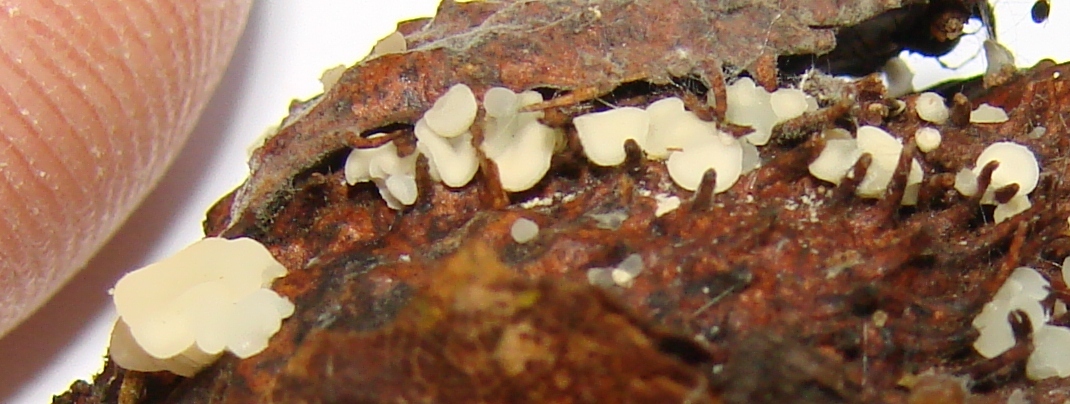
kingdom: Fungi
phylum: Ascomycota
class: Leotiomycetes
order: Helotiales
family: Helotiaceae
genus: Hymenoscyphus
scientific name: Hymenoscyphus fagineus
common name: vellugtende stilkskive
